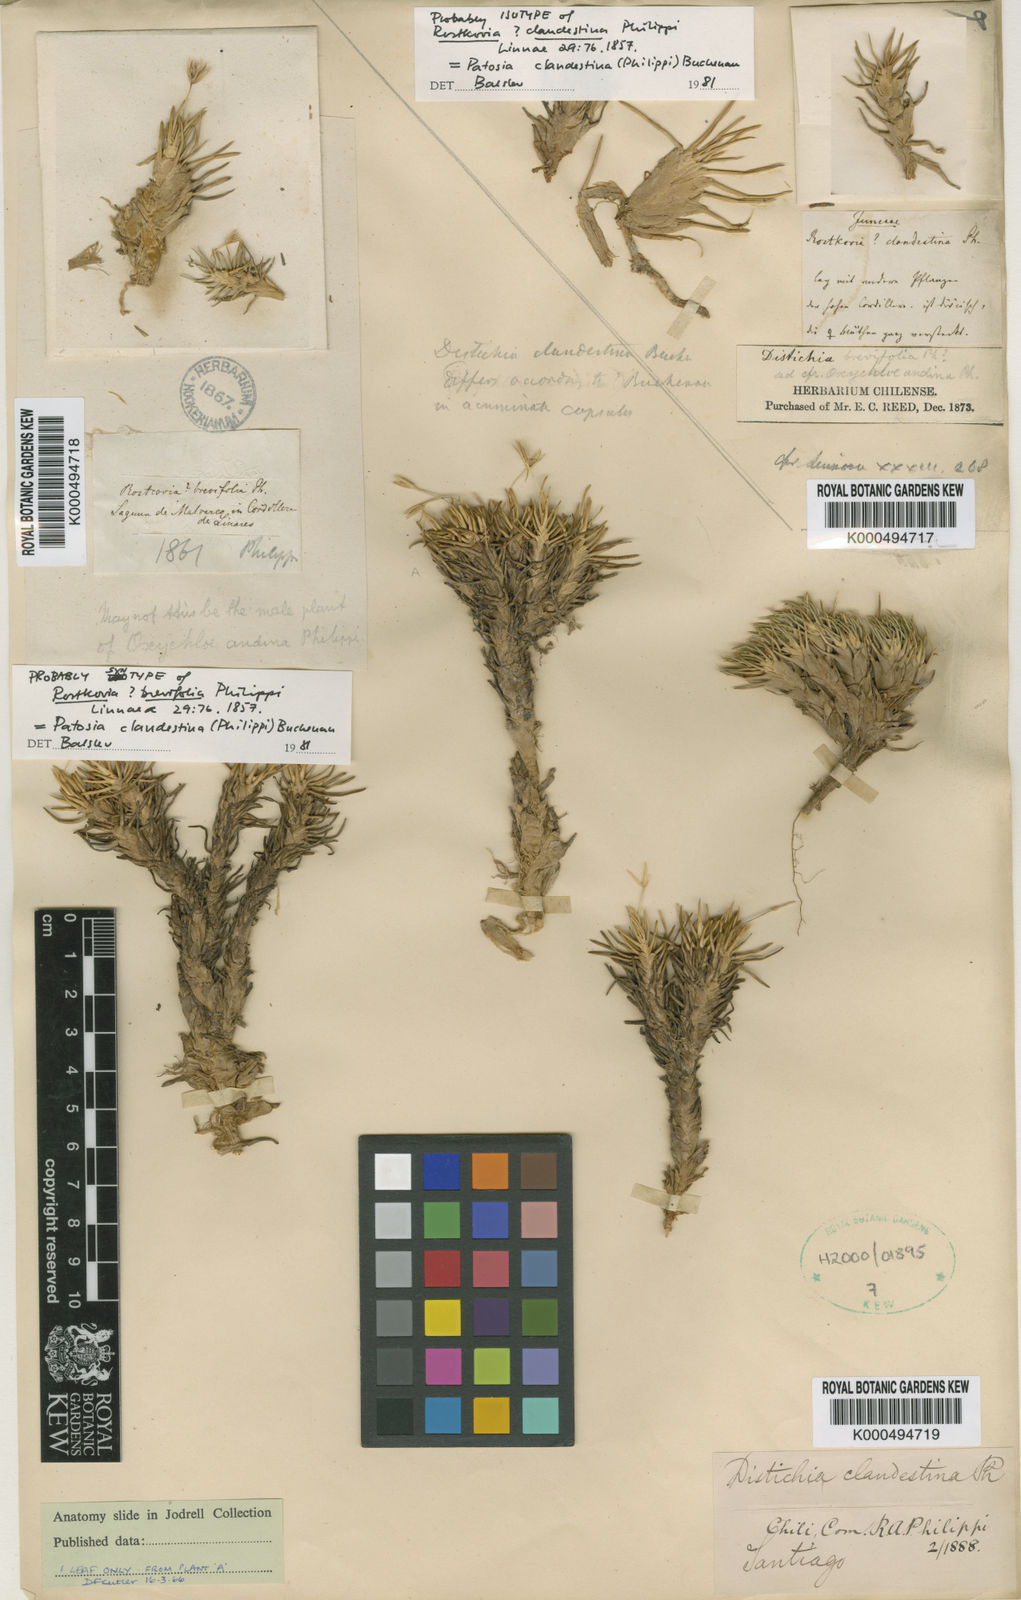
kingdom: Plantae
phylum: Tracheophyta
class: Liliopsida
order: Poales
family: Juncaceae
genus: Patosia
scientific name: Patosia clandestina
